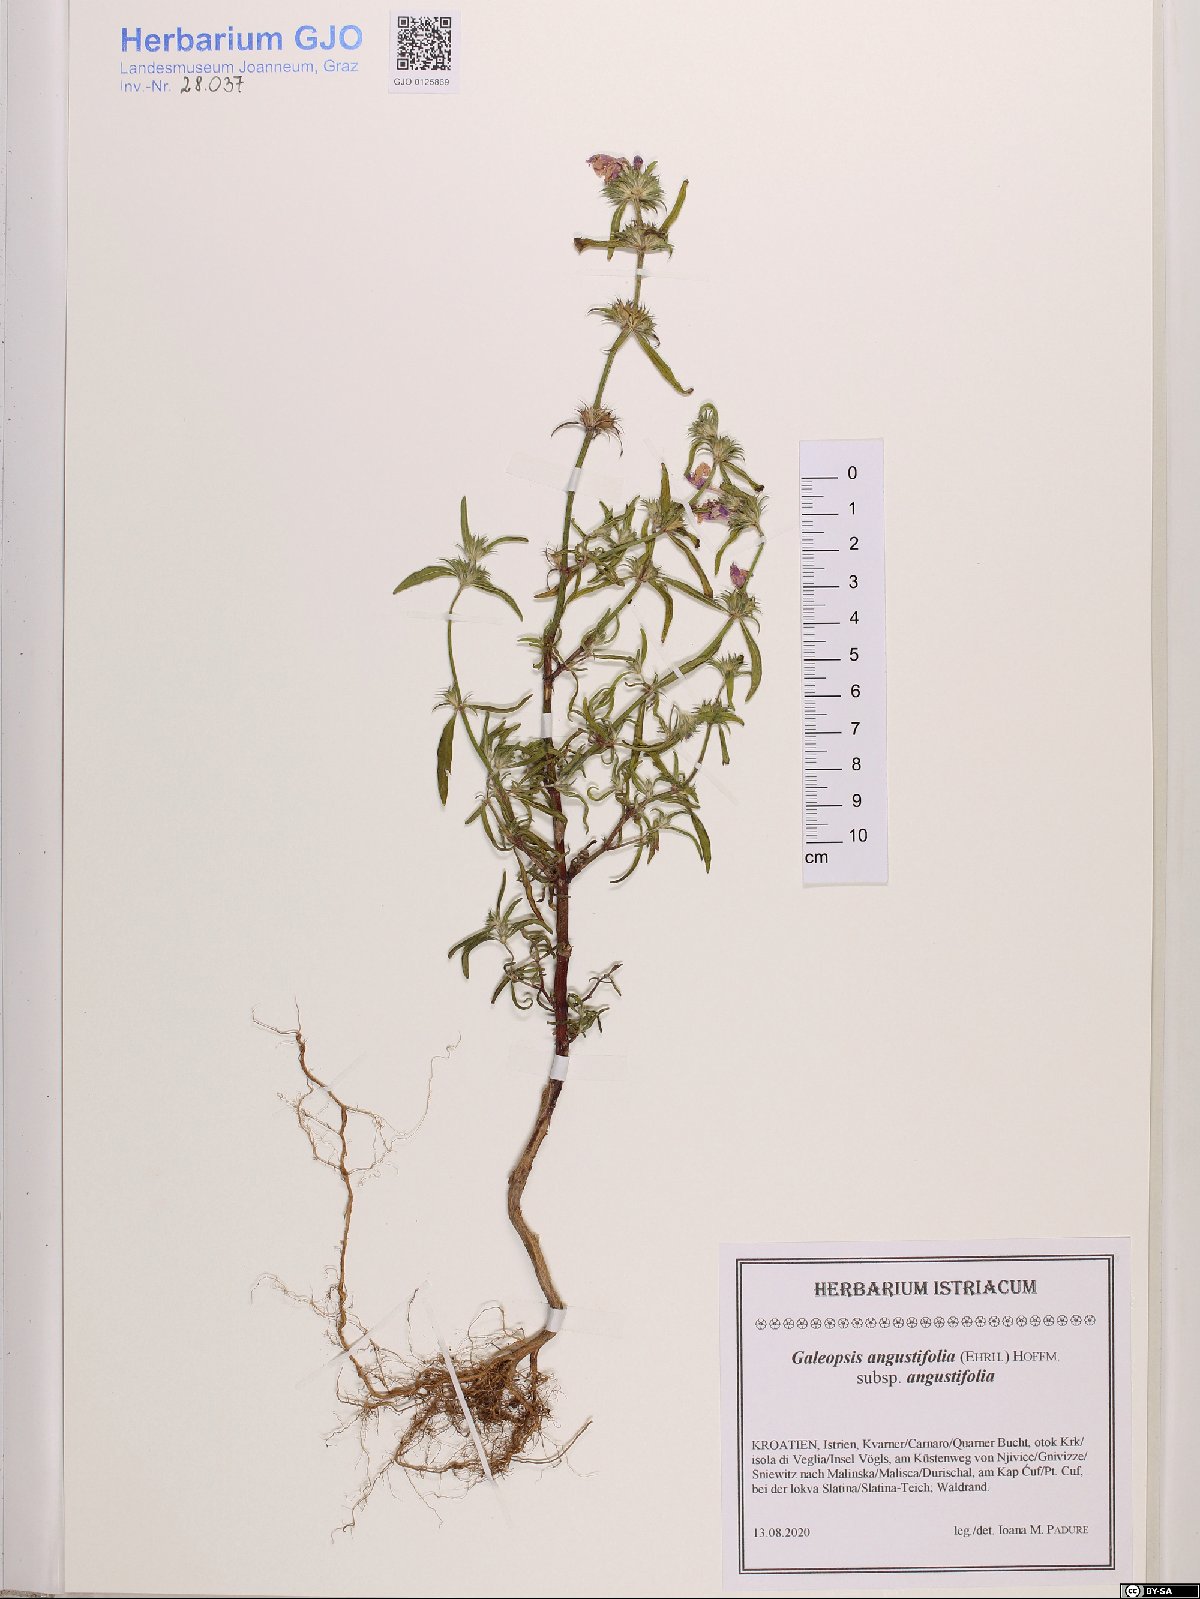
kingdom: Plantae
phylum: Tracheophyta
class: Magnoliopsida
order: Lamiales
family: Lamiaceae
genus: Galeopsis
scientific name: Galeopsis angustifolia
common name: Red hemp-nettle
